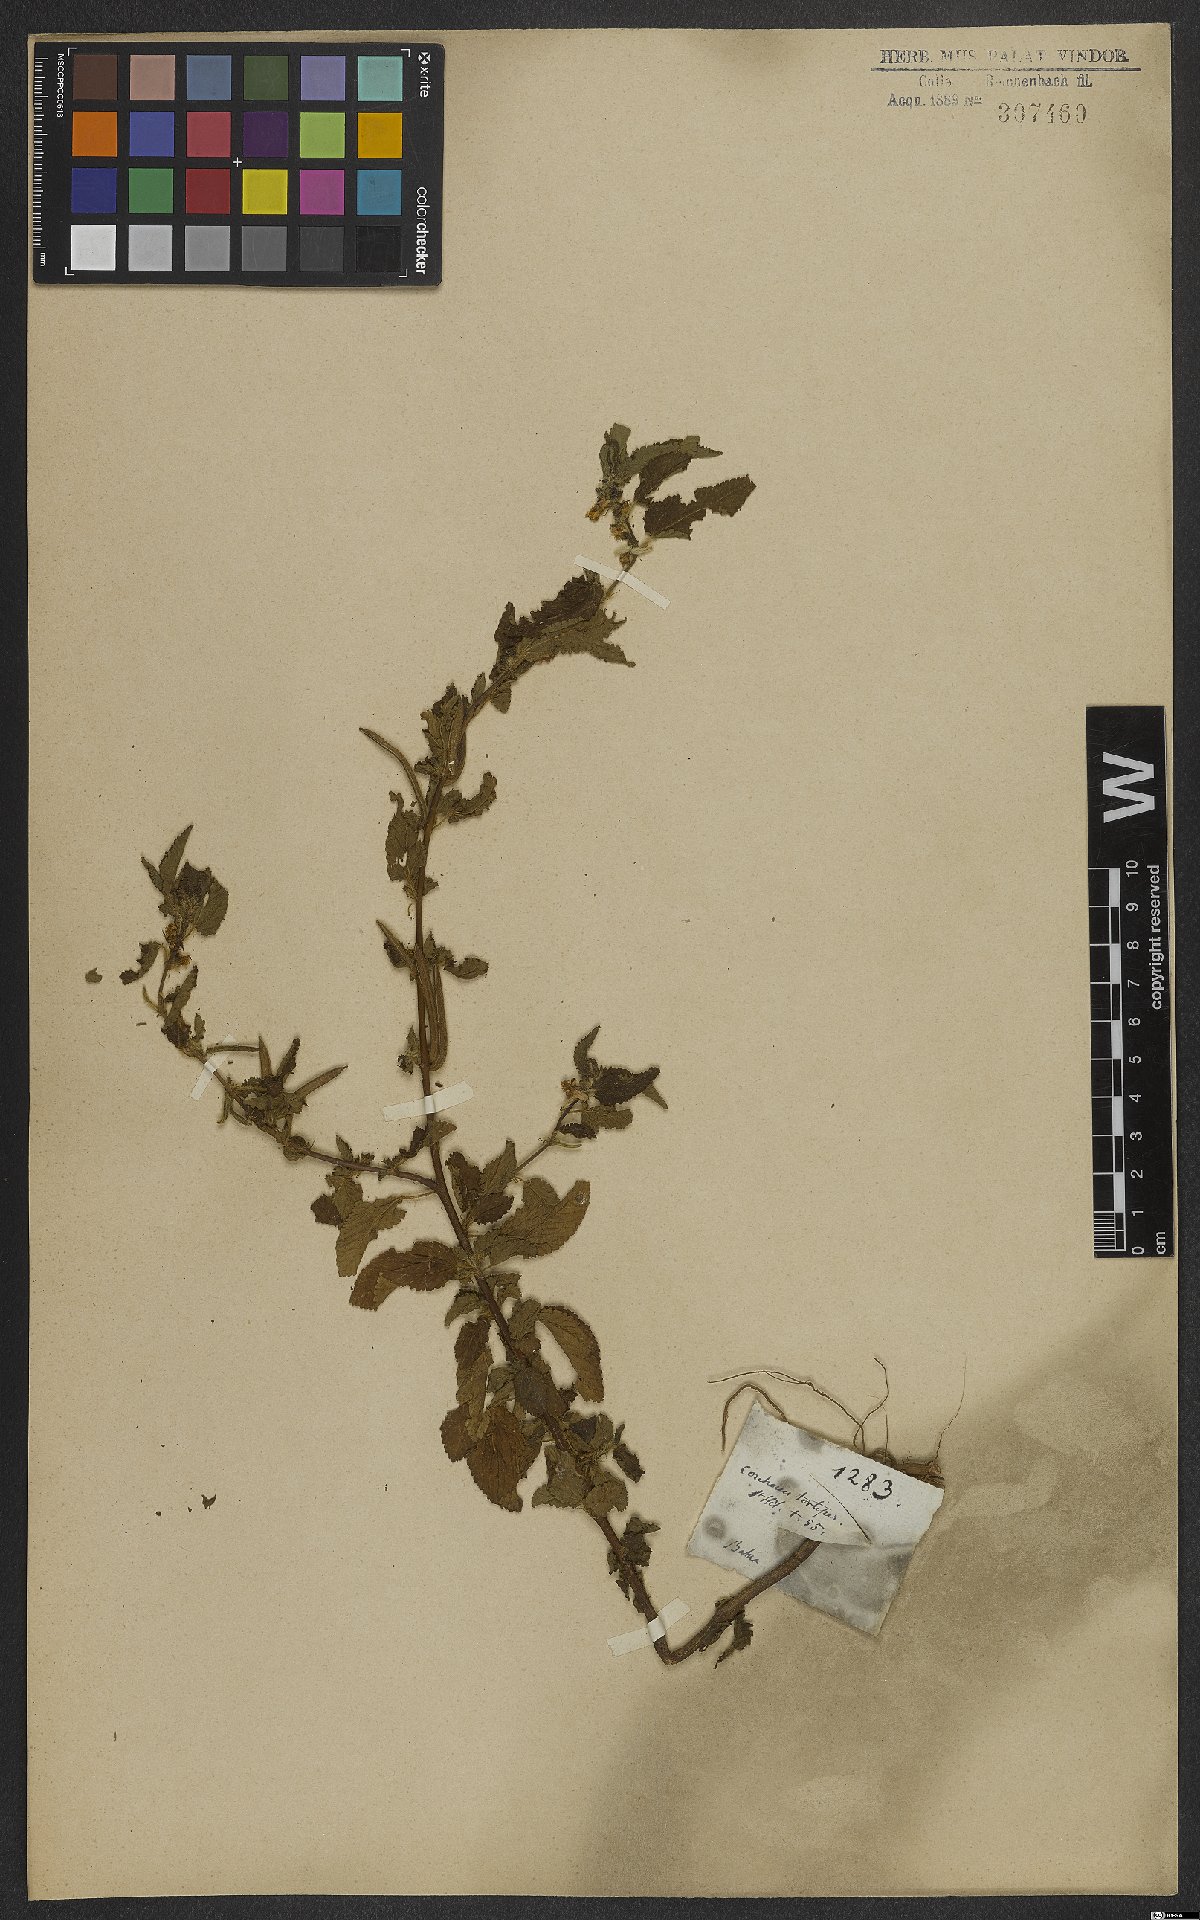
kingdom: Plantae
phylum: Tracheophyta
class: Magnoliopsida
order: Malvales
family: Malvaceae
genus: Corchorus
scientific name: Corchorus hirtus
